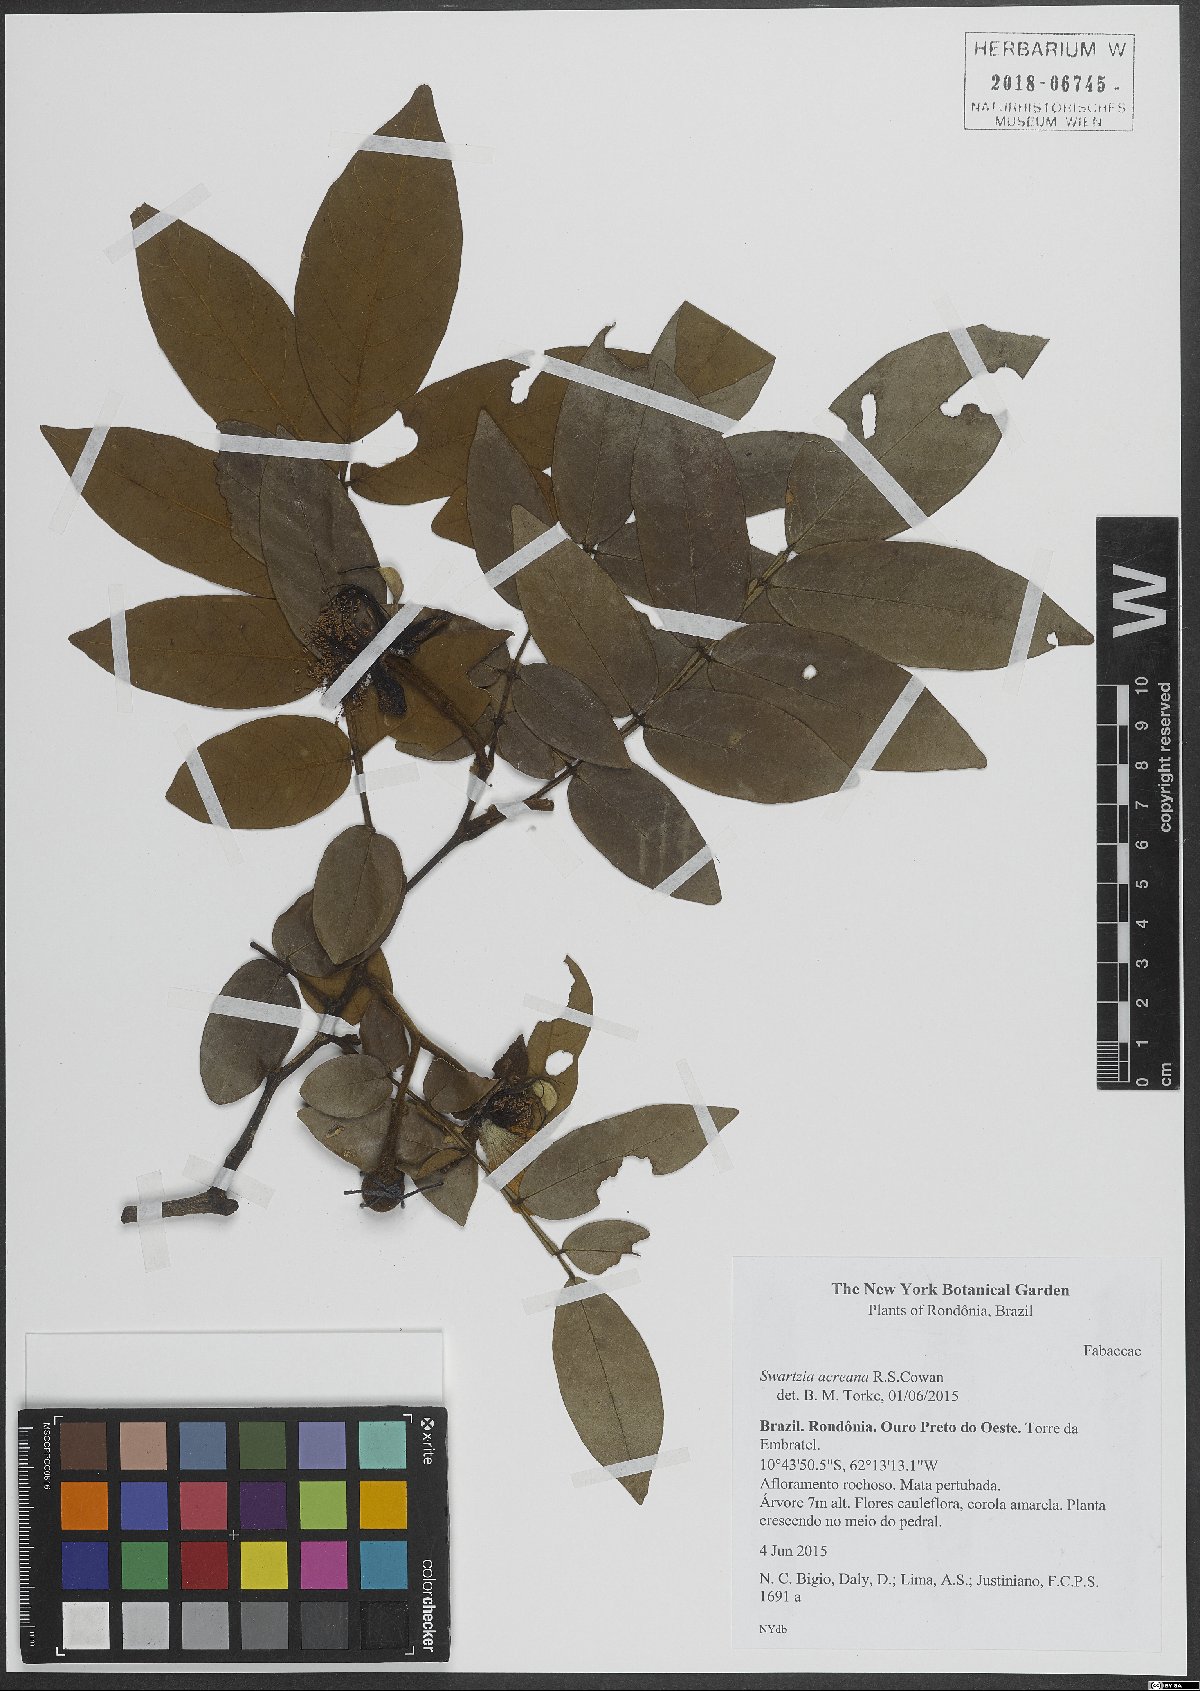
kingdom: Plantae
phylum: Tracheophyta
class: Magnoliopsida
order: Fabales
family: Fabaceae
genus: Swartzia
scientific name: Swartzia
